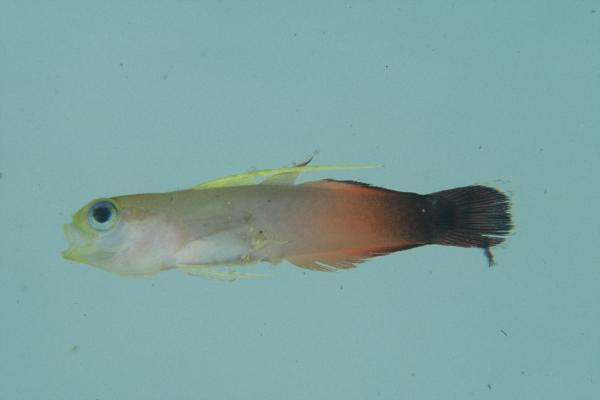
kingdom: Animalia
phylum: Chordata
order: Perciformes
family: Microdesmidae
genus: Nemateleotris
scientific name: Nemateleotris magnifica
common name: Fire goby
